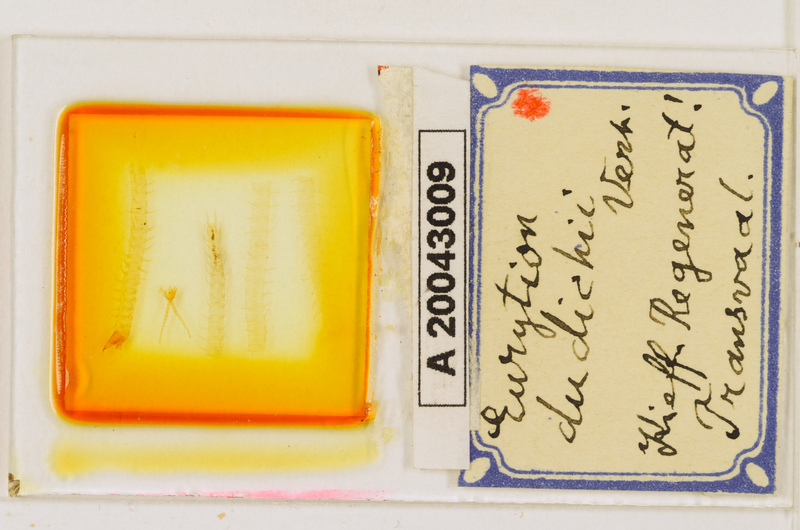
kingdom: Animalia
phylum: Arthropoda
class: Chilopoda
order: Geophilomorpha
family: Geophilidae
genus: Eurytion
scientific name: Eurytion dudichii
